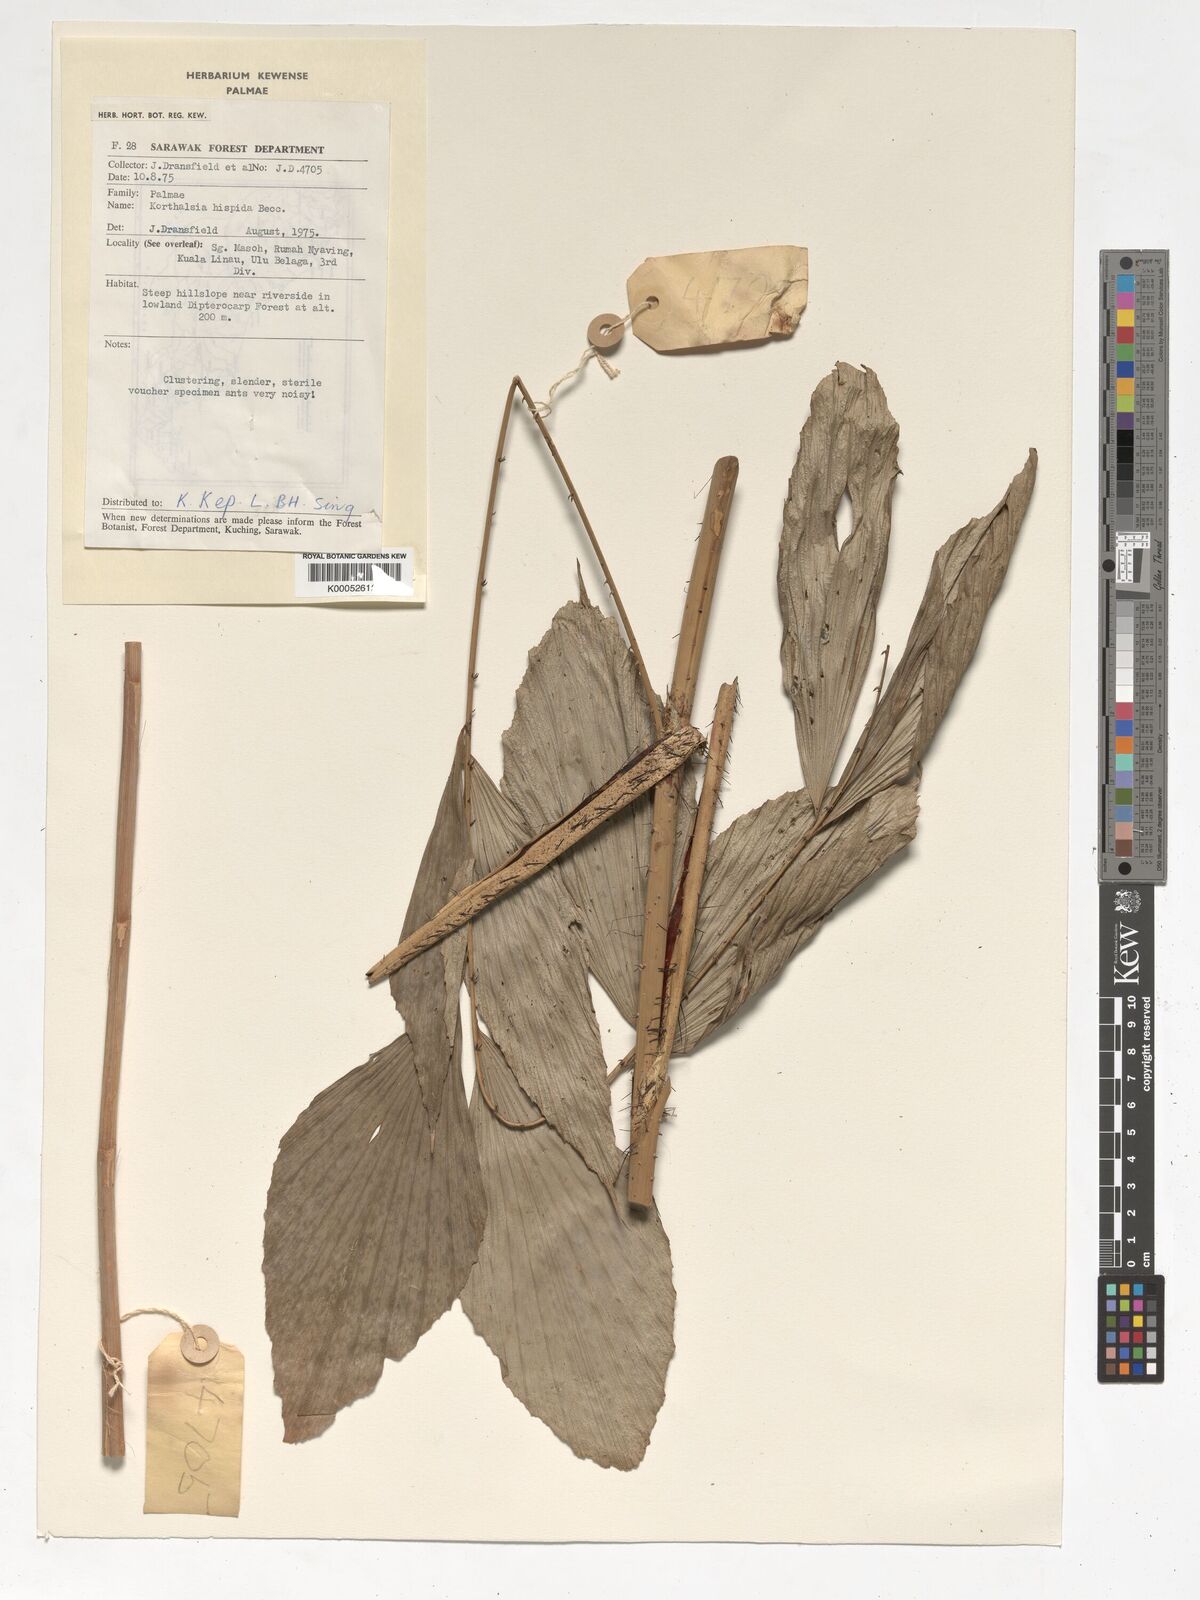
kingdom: Plantae
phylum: Tracheophyta
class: Liliopsida
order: Arecales
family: Arecaceae
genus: Korthalsia
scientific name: Korthalsia hispida
